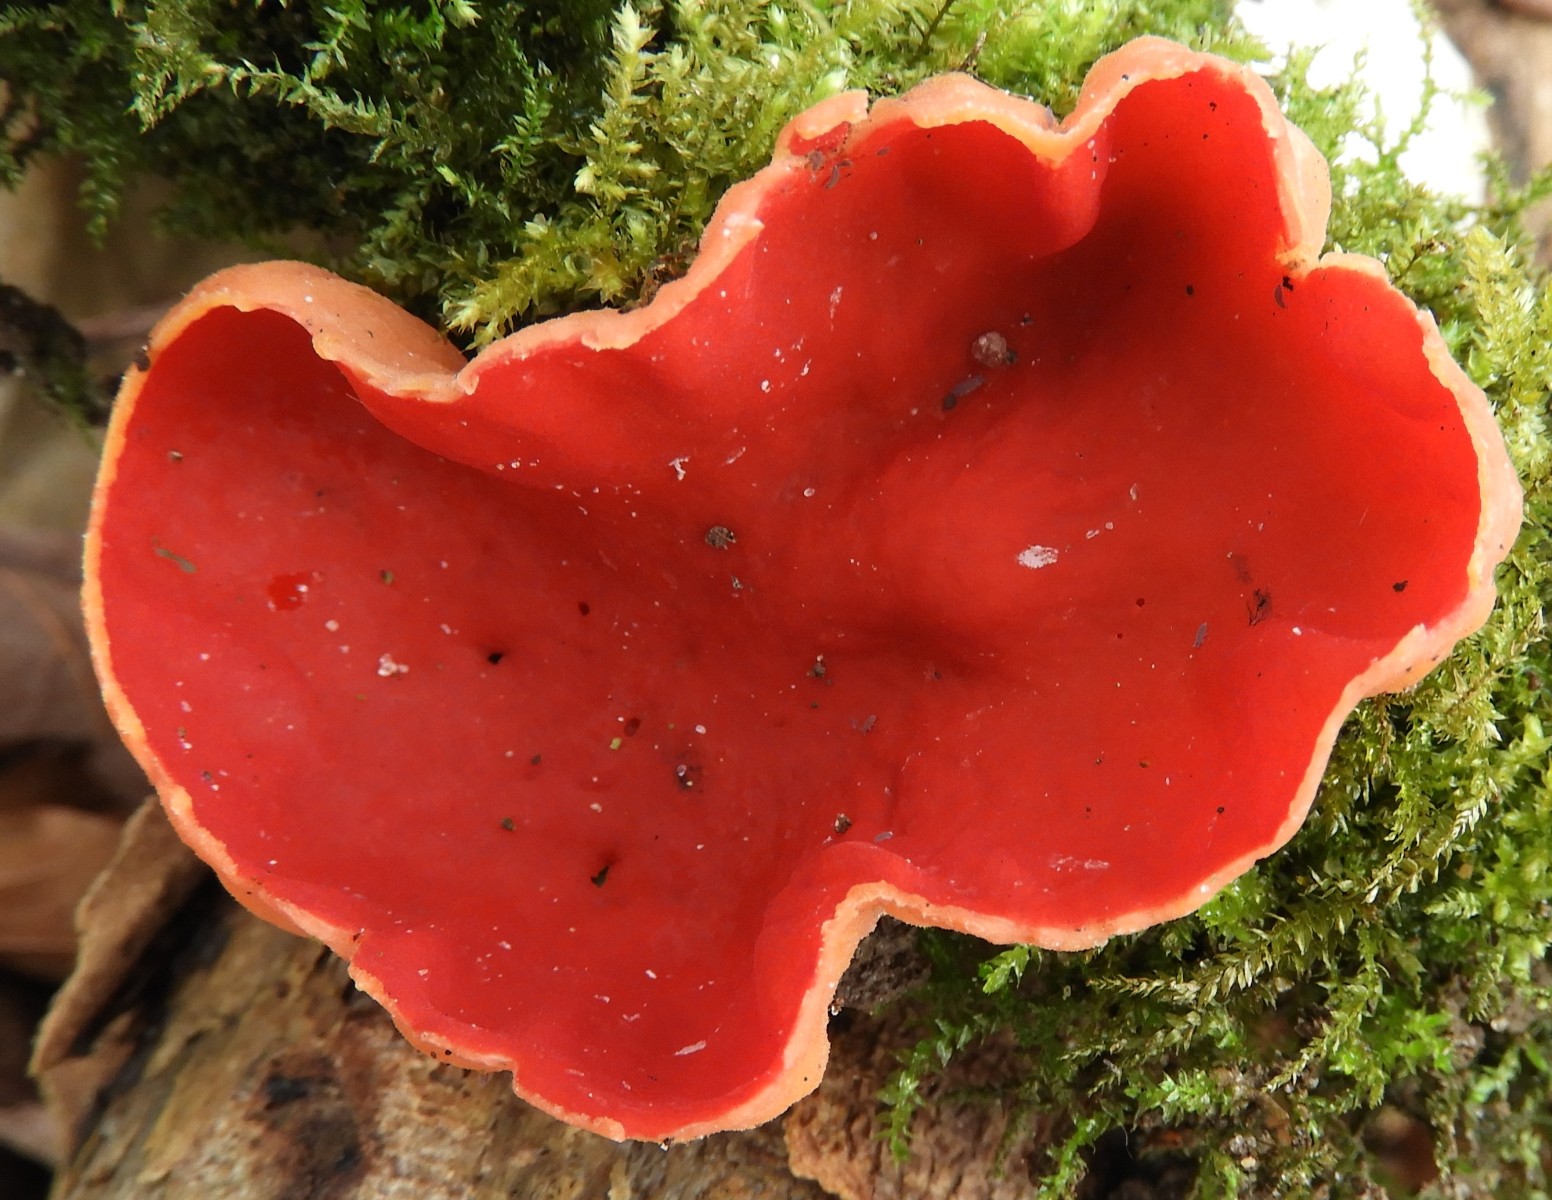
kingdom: Fungi
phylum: Ascomycota
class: Pezizomycetes
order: Pezizales
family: Sarcoscyphaceae
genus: Sarcoscypha
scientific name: Sarcoscypha austriaca
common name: krølhåret pragtbæger
